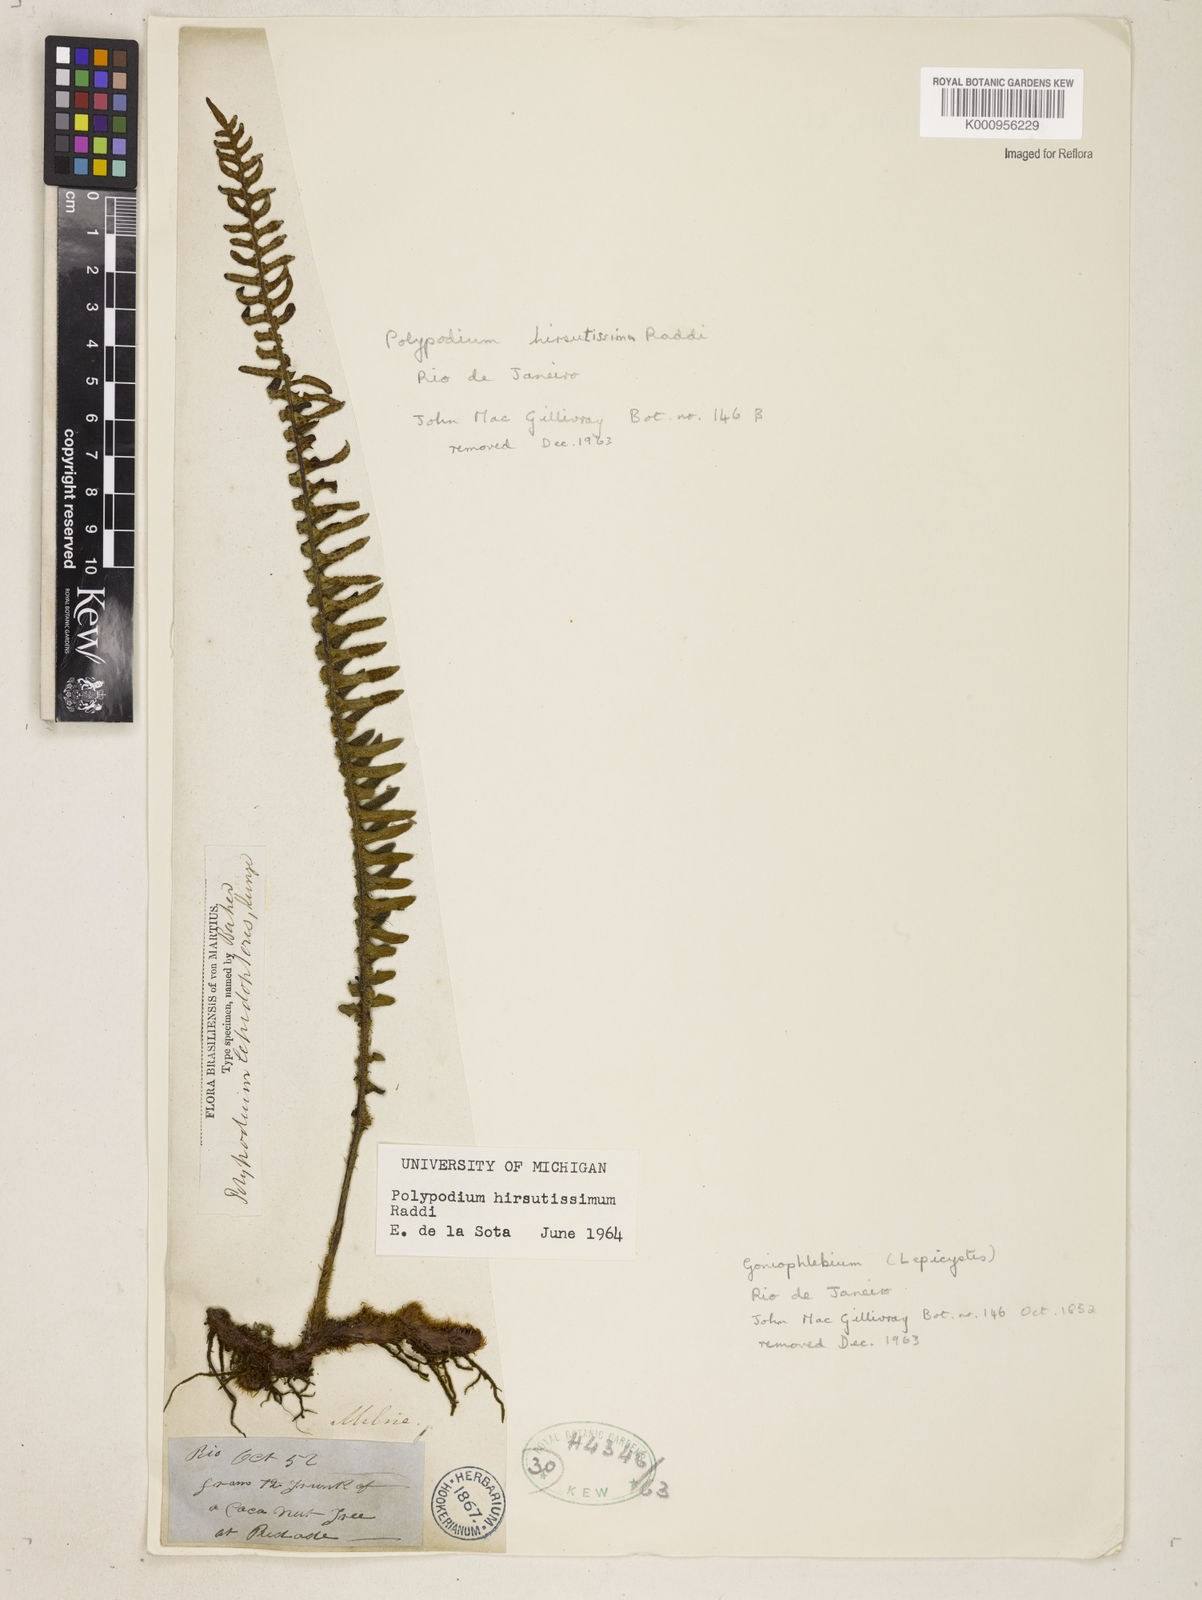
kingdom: Plantae
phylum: Tracheophyta
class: Polypodiopsida
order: Polypodiales
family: Polypodiaceae
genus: Pleopeltis
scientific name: Pleopeltis hirsutissima
